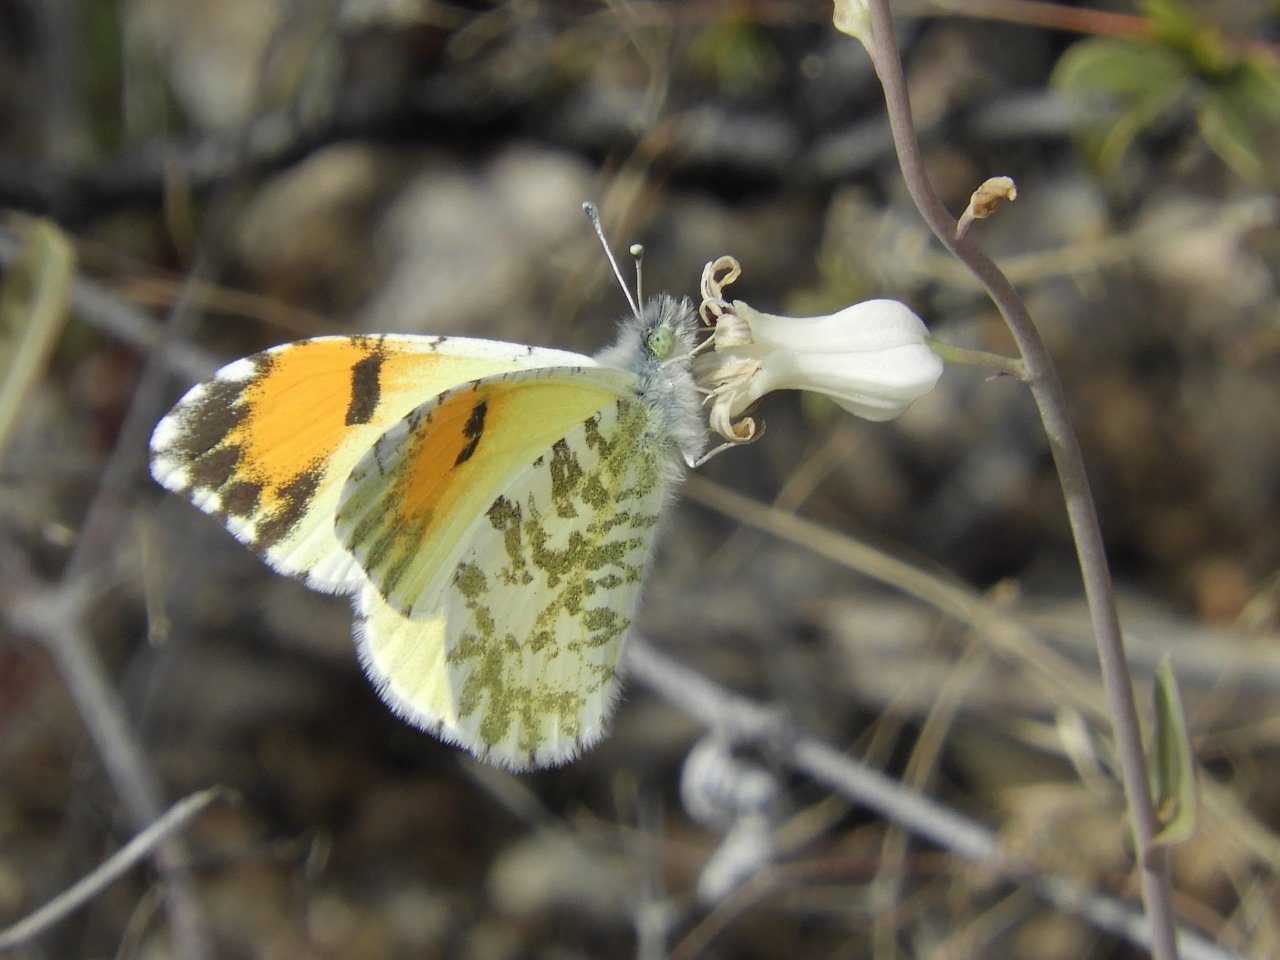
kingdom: Animalia
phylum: Arthropoda
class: Insecta
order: Lepidoptera
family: Pieridae
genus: Anthocharis
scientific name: Anthocharis cethura
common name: Desert Orangetip
